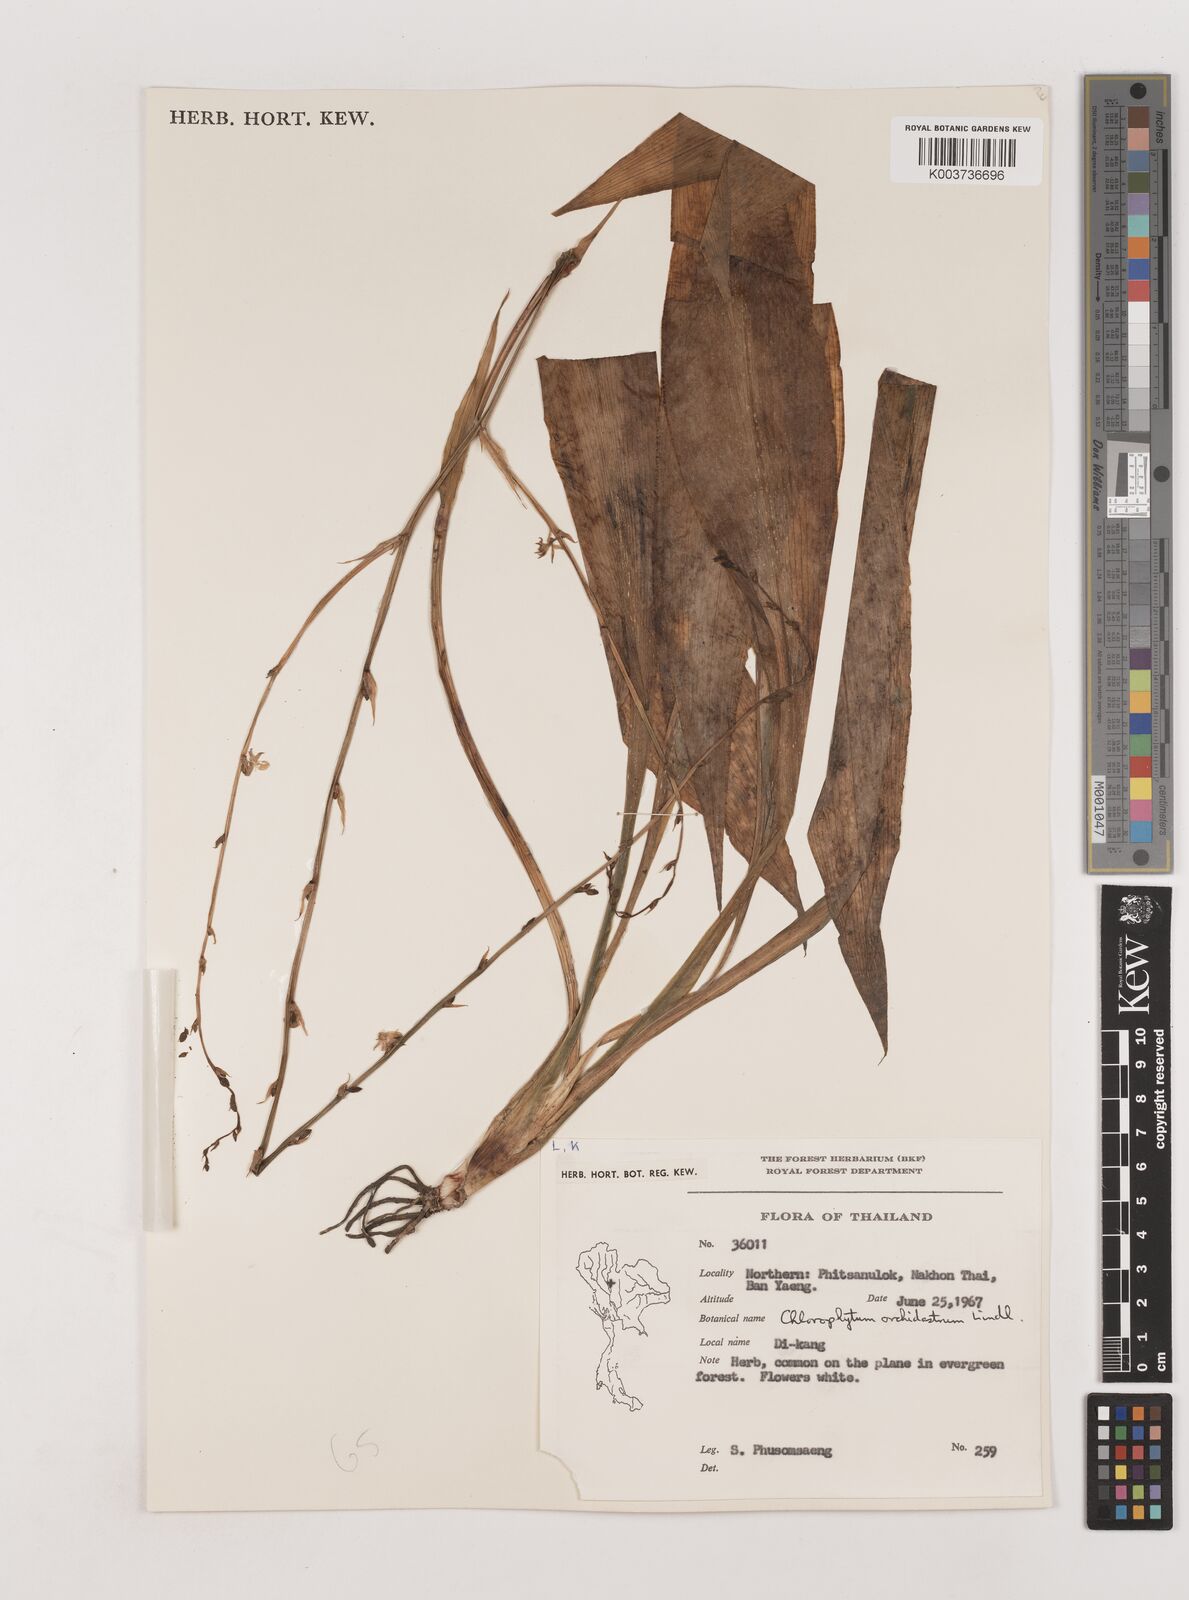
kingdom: Plantae
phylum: Tracheophyta
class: Liliopsida
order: Asparagales
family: Asparagaceae
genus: Chlorophytum
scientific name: Chlorophytum
